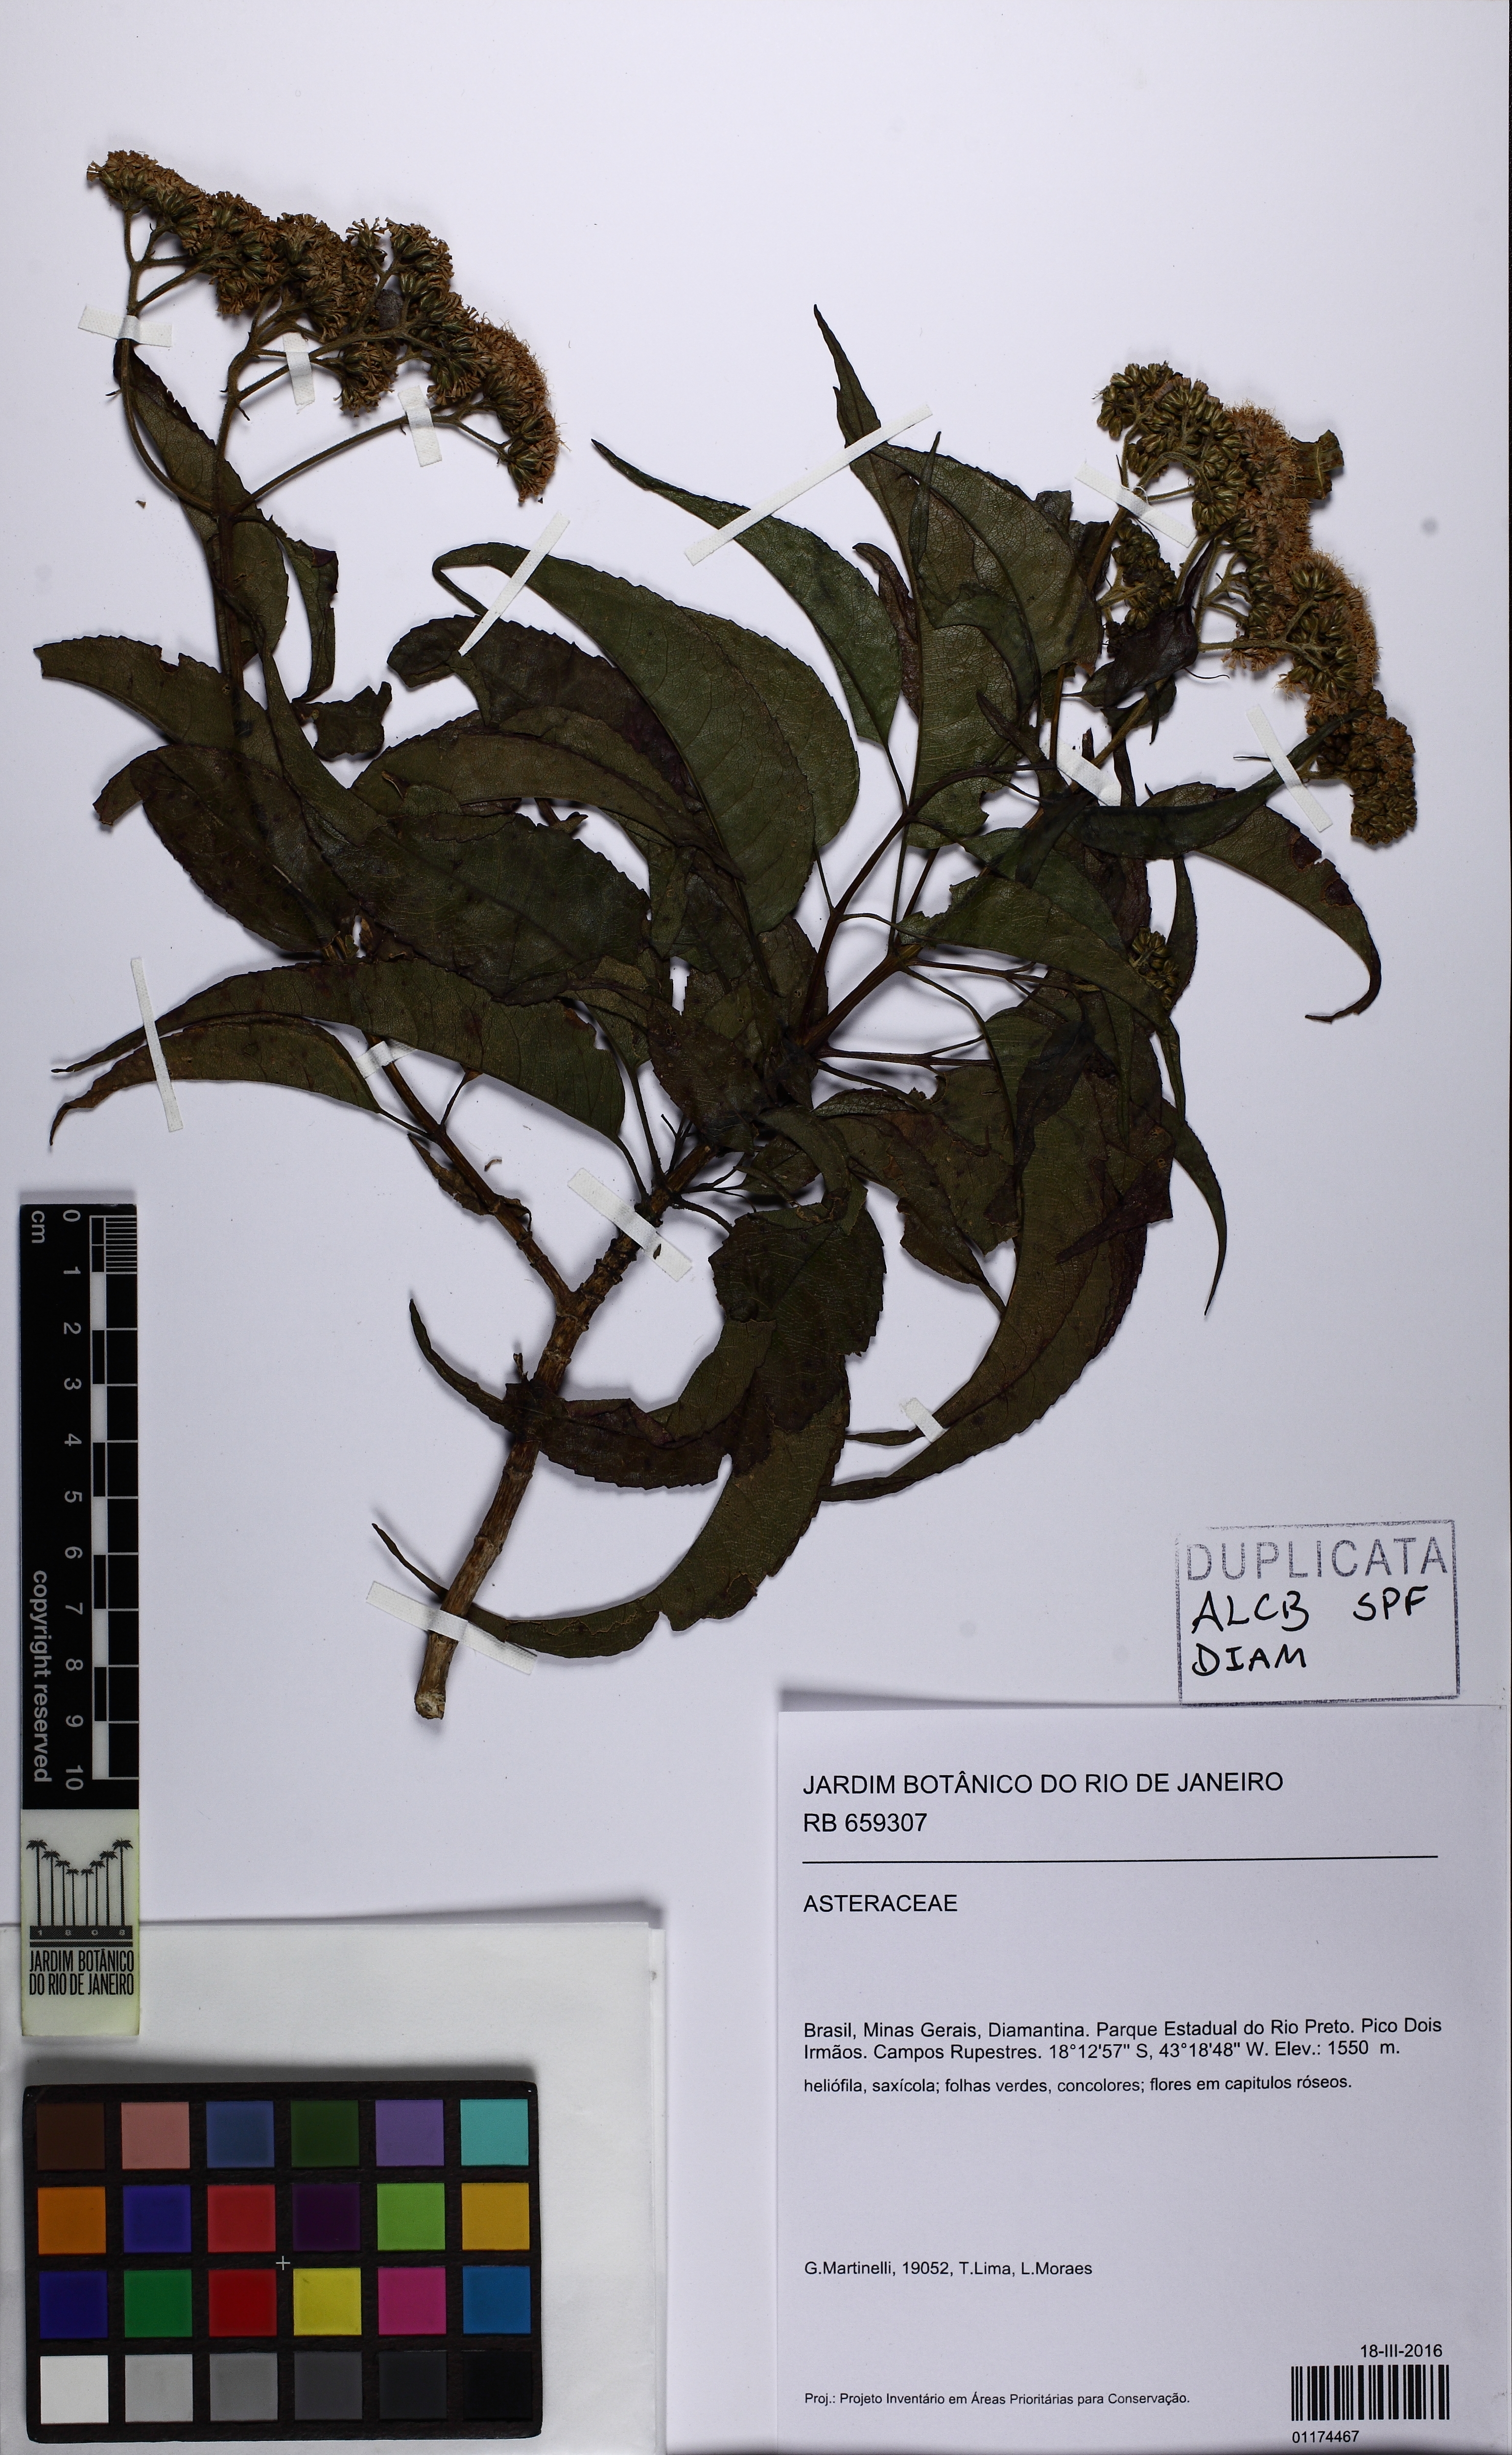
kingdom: Plantae
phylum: Tracheophyta
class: Magnoliopsida
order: Asterales
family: Asteraceae
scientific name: Asteraceae
